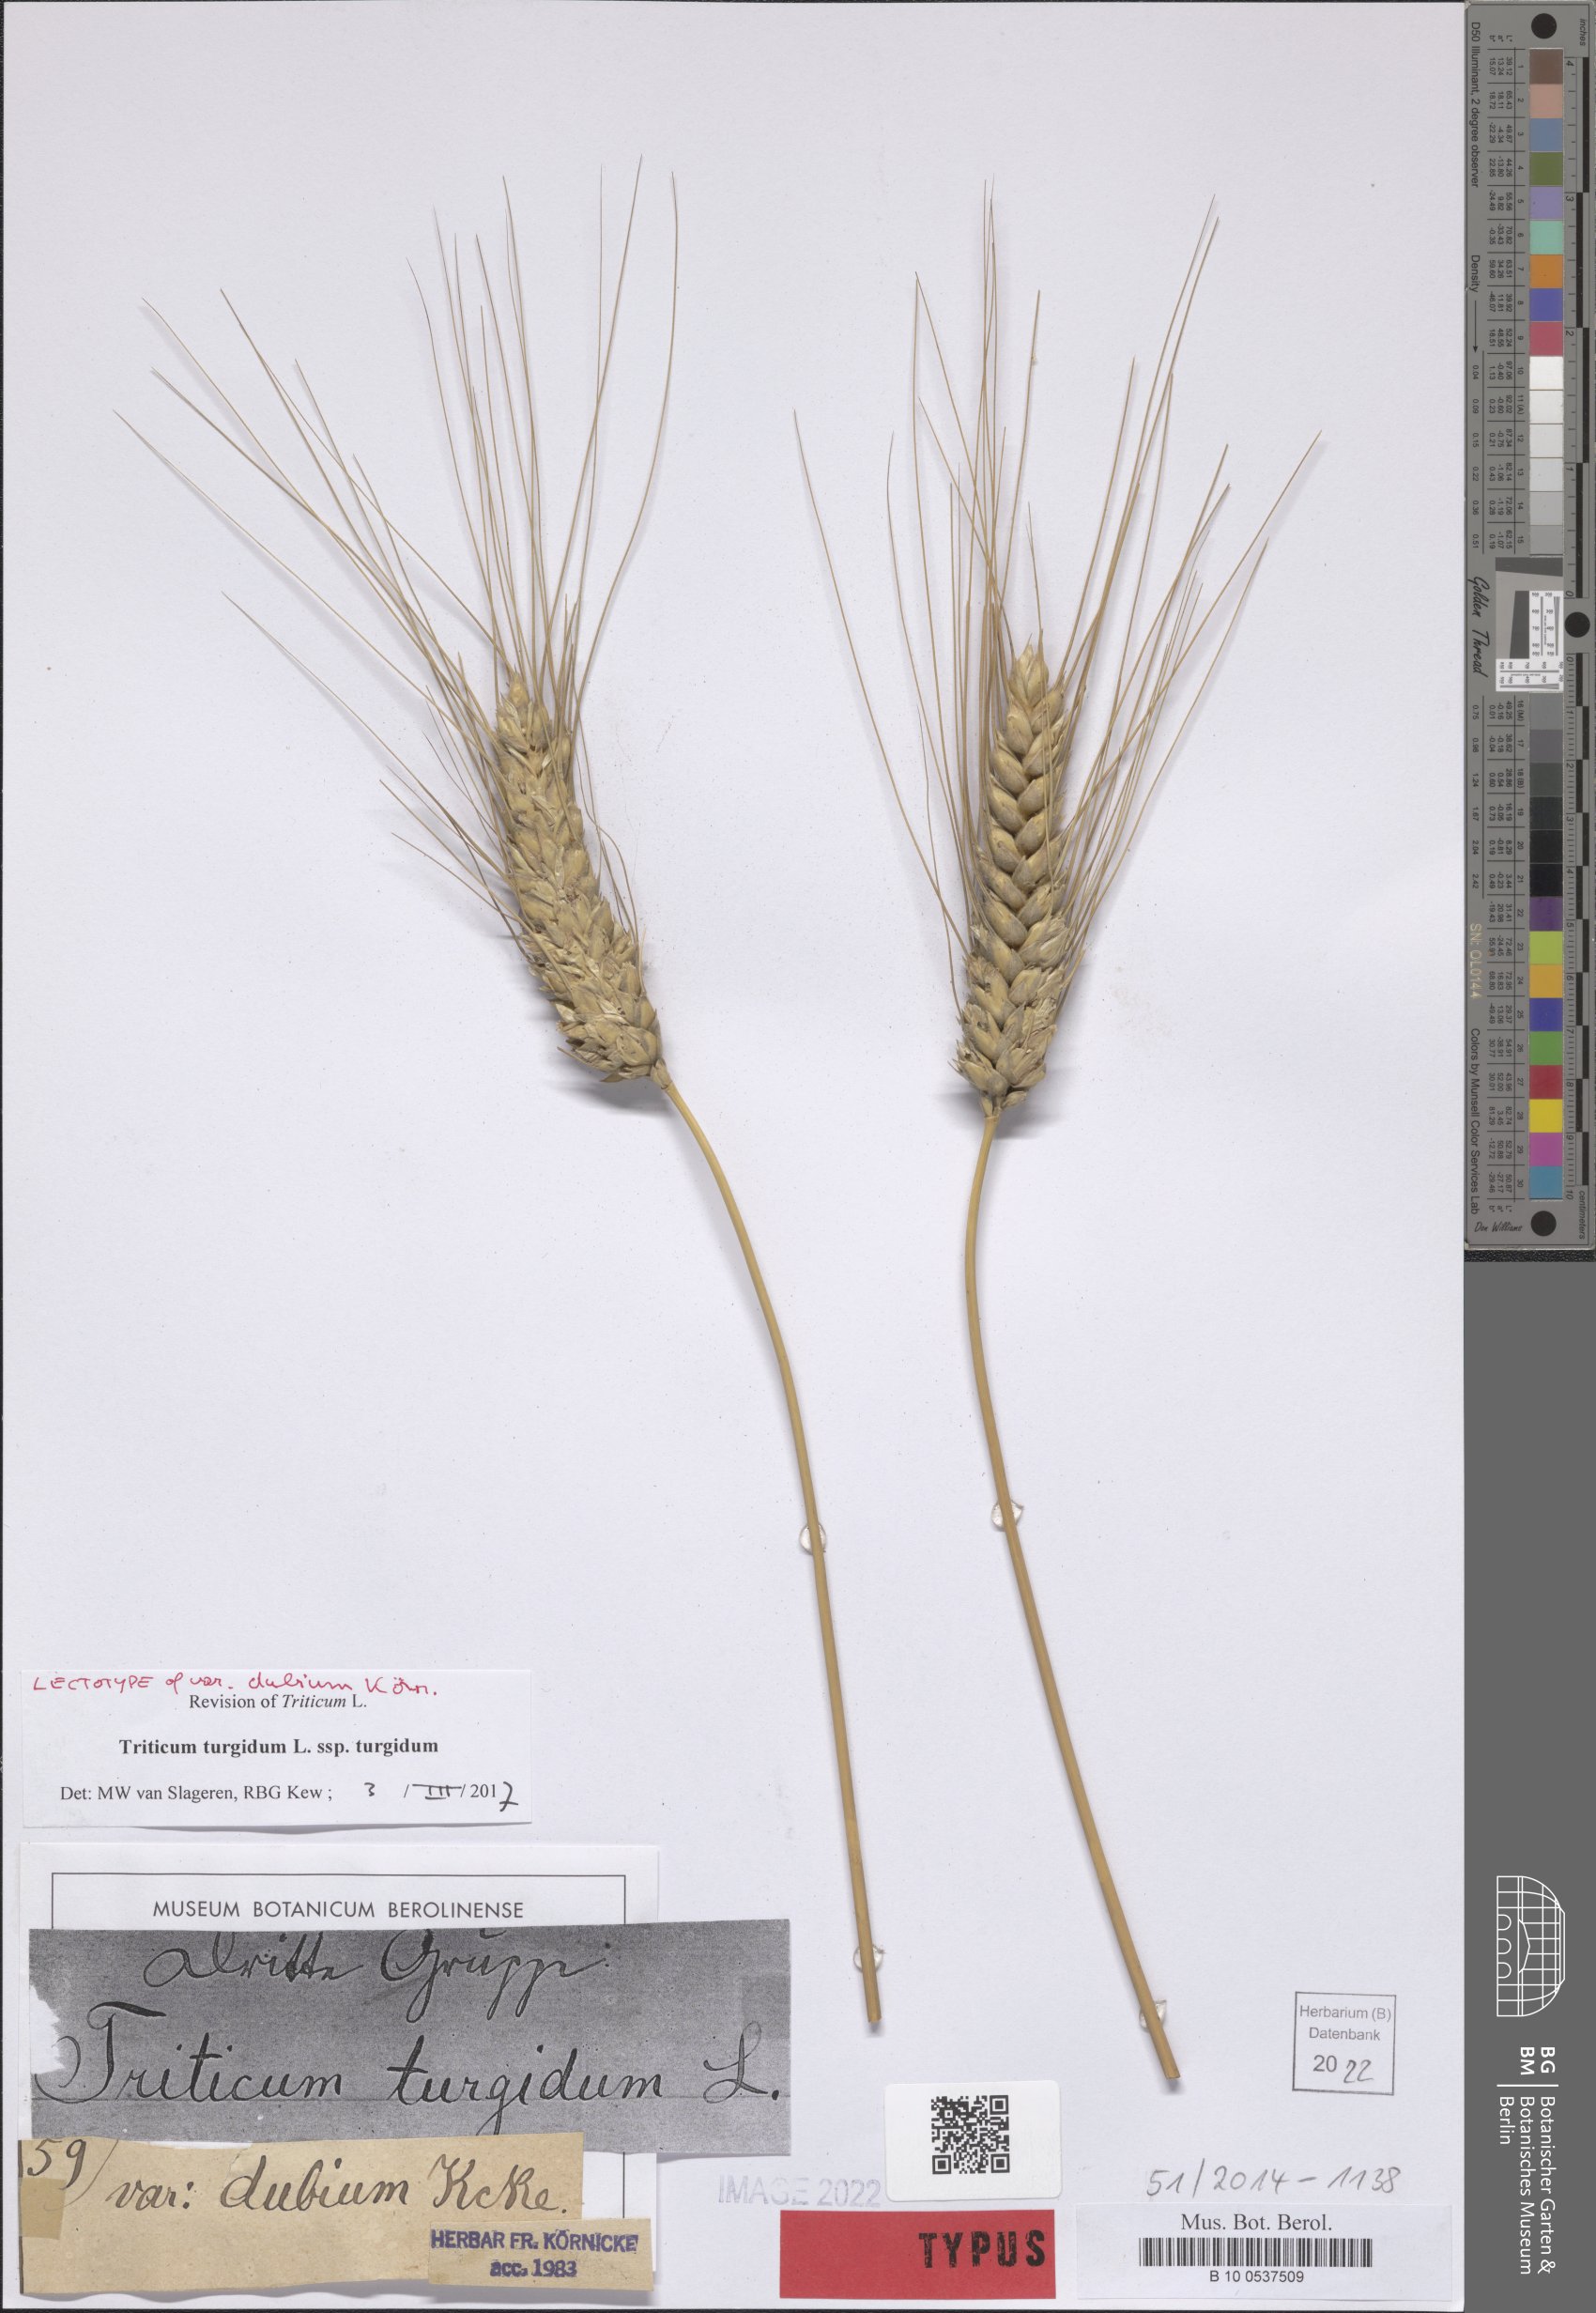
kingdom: Plantae
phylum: Tracheophyta
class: Liliopsida
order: Poales
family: Poaceae
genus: Triticum
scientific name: Triticum turgidum
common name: Rivet wheat
